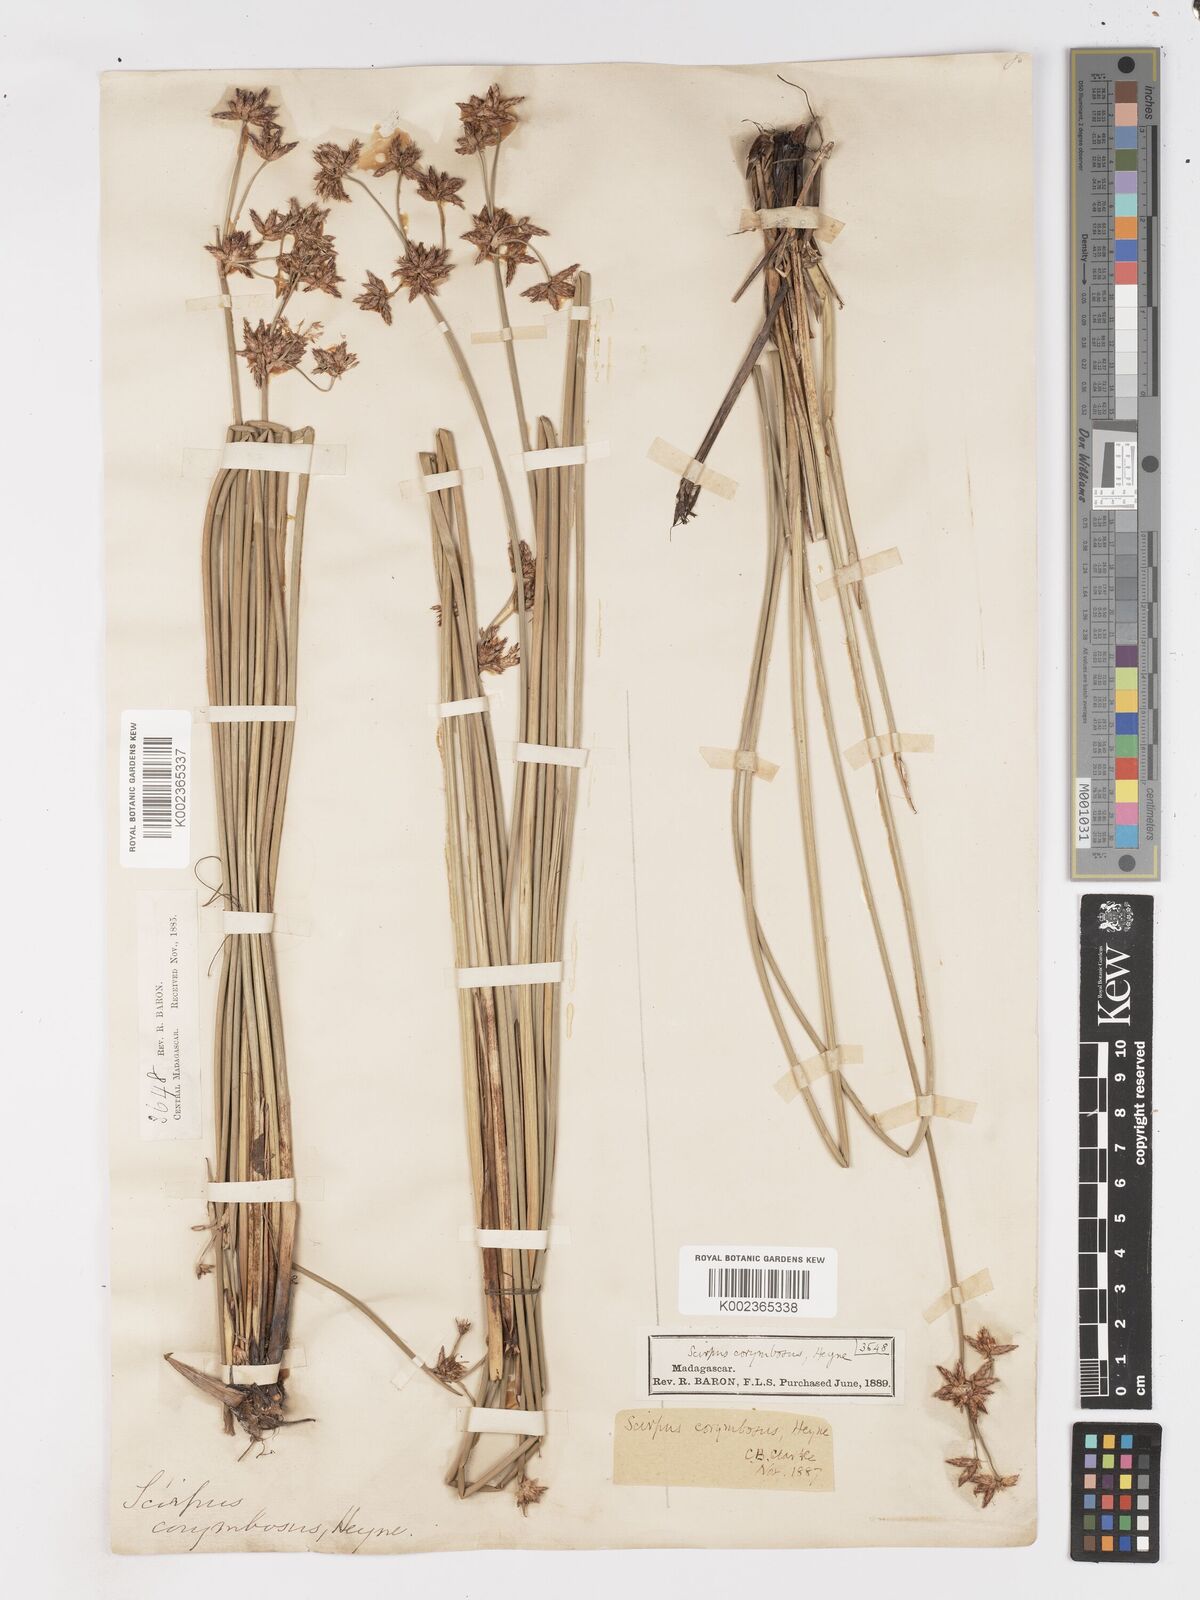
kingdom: Plantae
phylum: Tracheophyta
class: Liliopsida
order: Poales
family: Cyperaceae
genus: Schoenoplectiella
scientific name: Schoenoplectiella corymbosa
